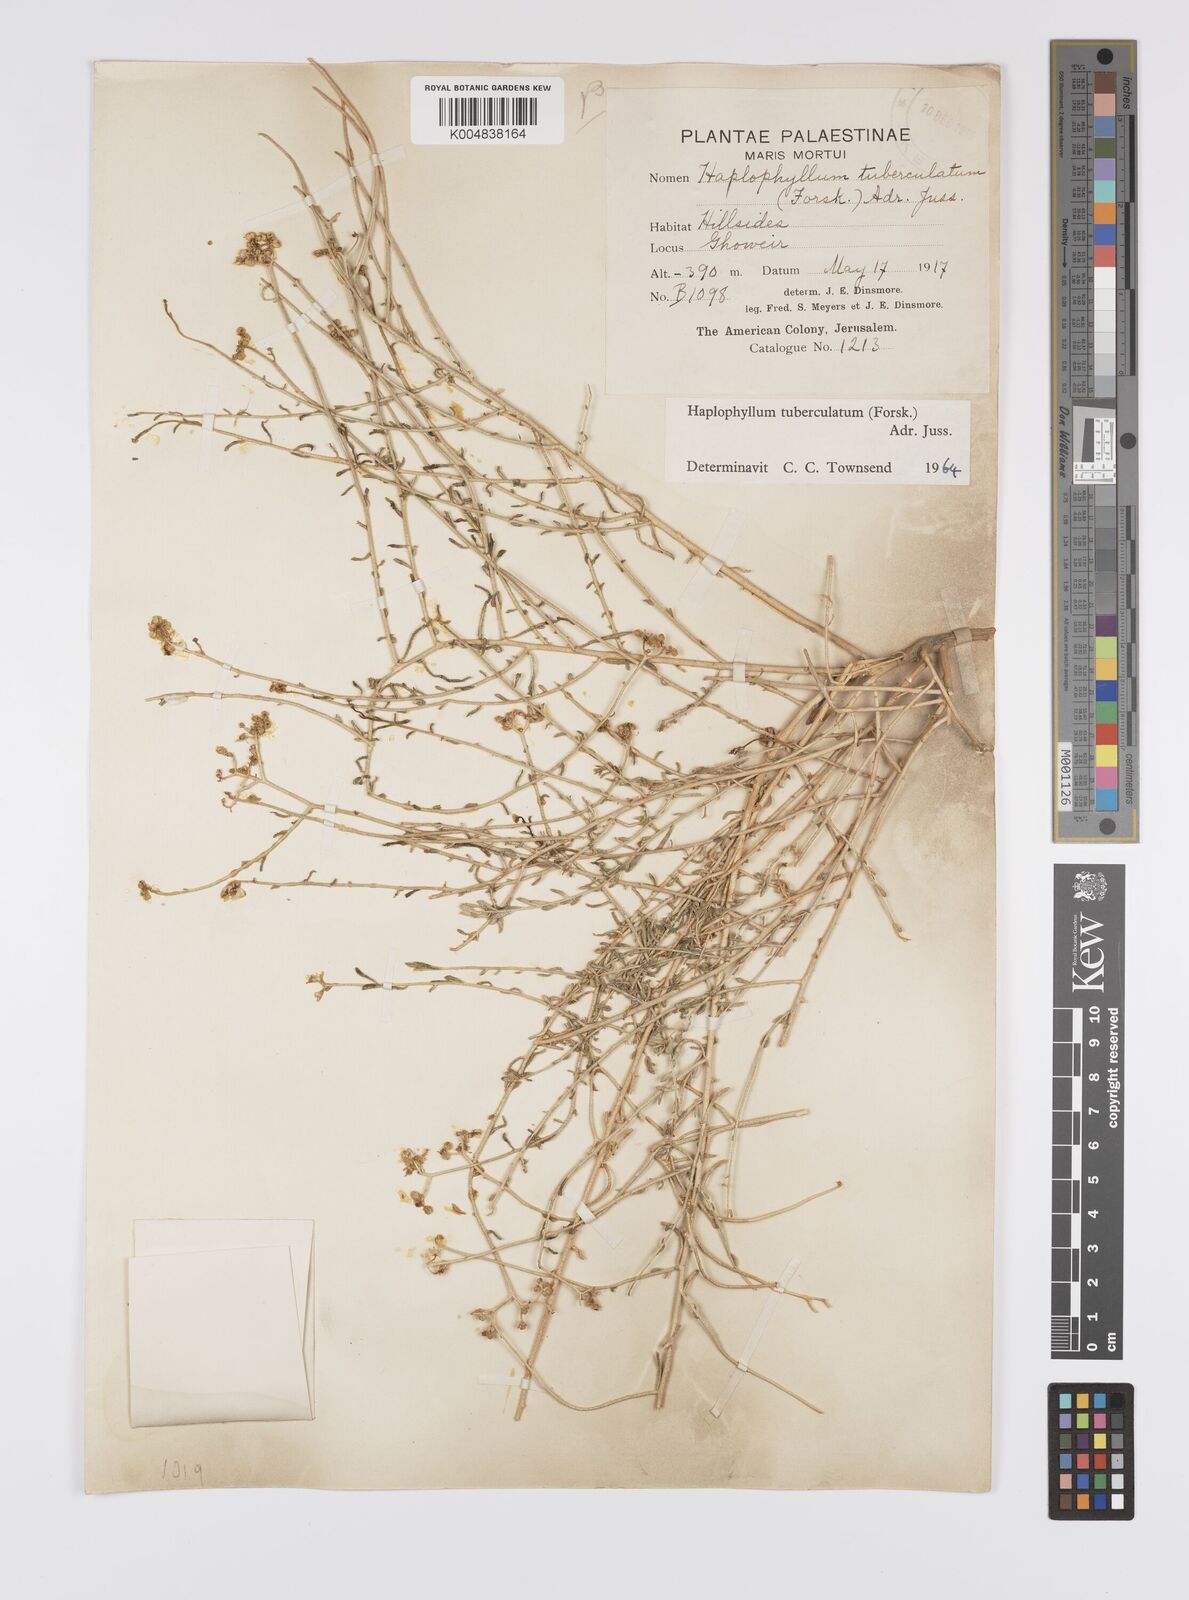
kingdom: Plantae
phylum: Tracheophyta
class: Magnoliopsida
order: Sapindales
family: Rutaceae
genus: Haplophyllum
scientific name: Haplophyllum tuberculatum
